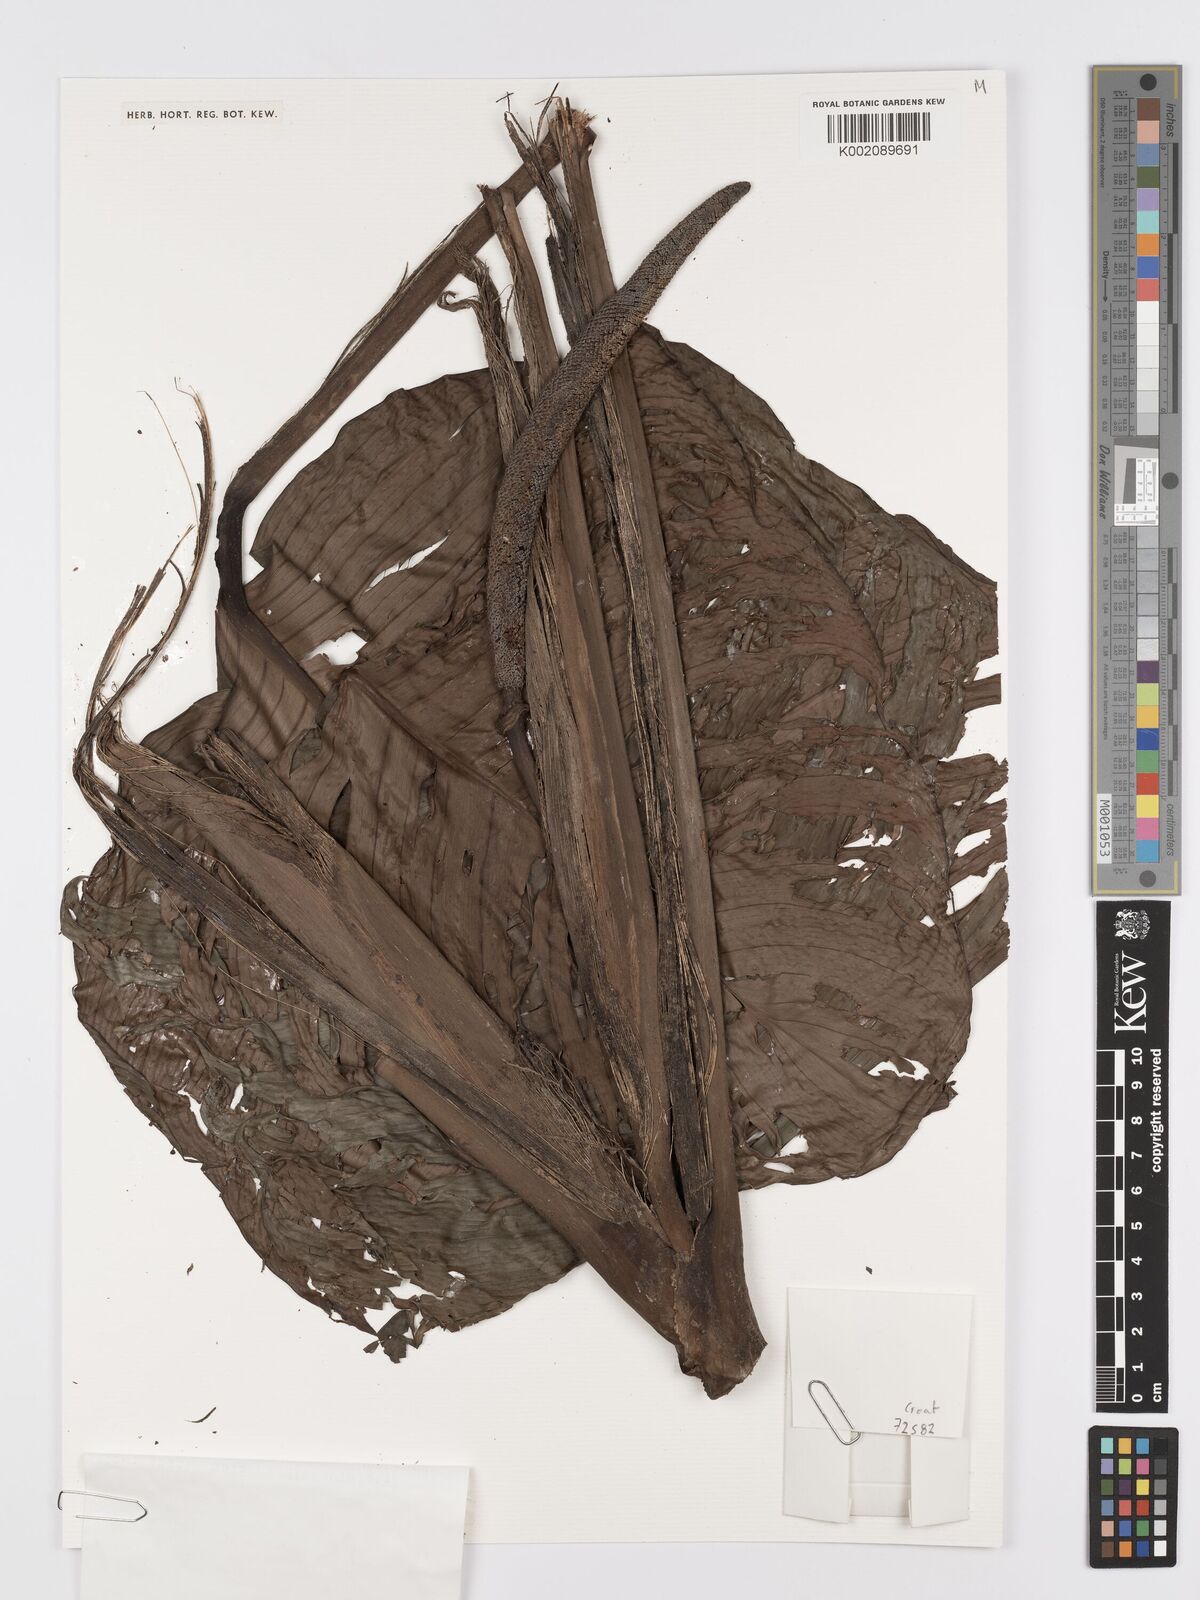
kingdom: Plantae
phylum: Tracheophyta
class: Liliopsida
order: Alismatales
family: Araceae
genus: Rhodospatha
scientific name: Rhodospatha
